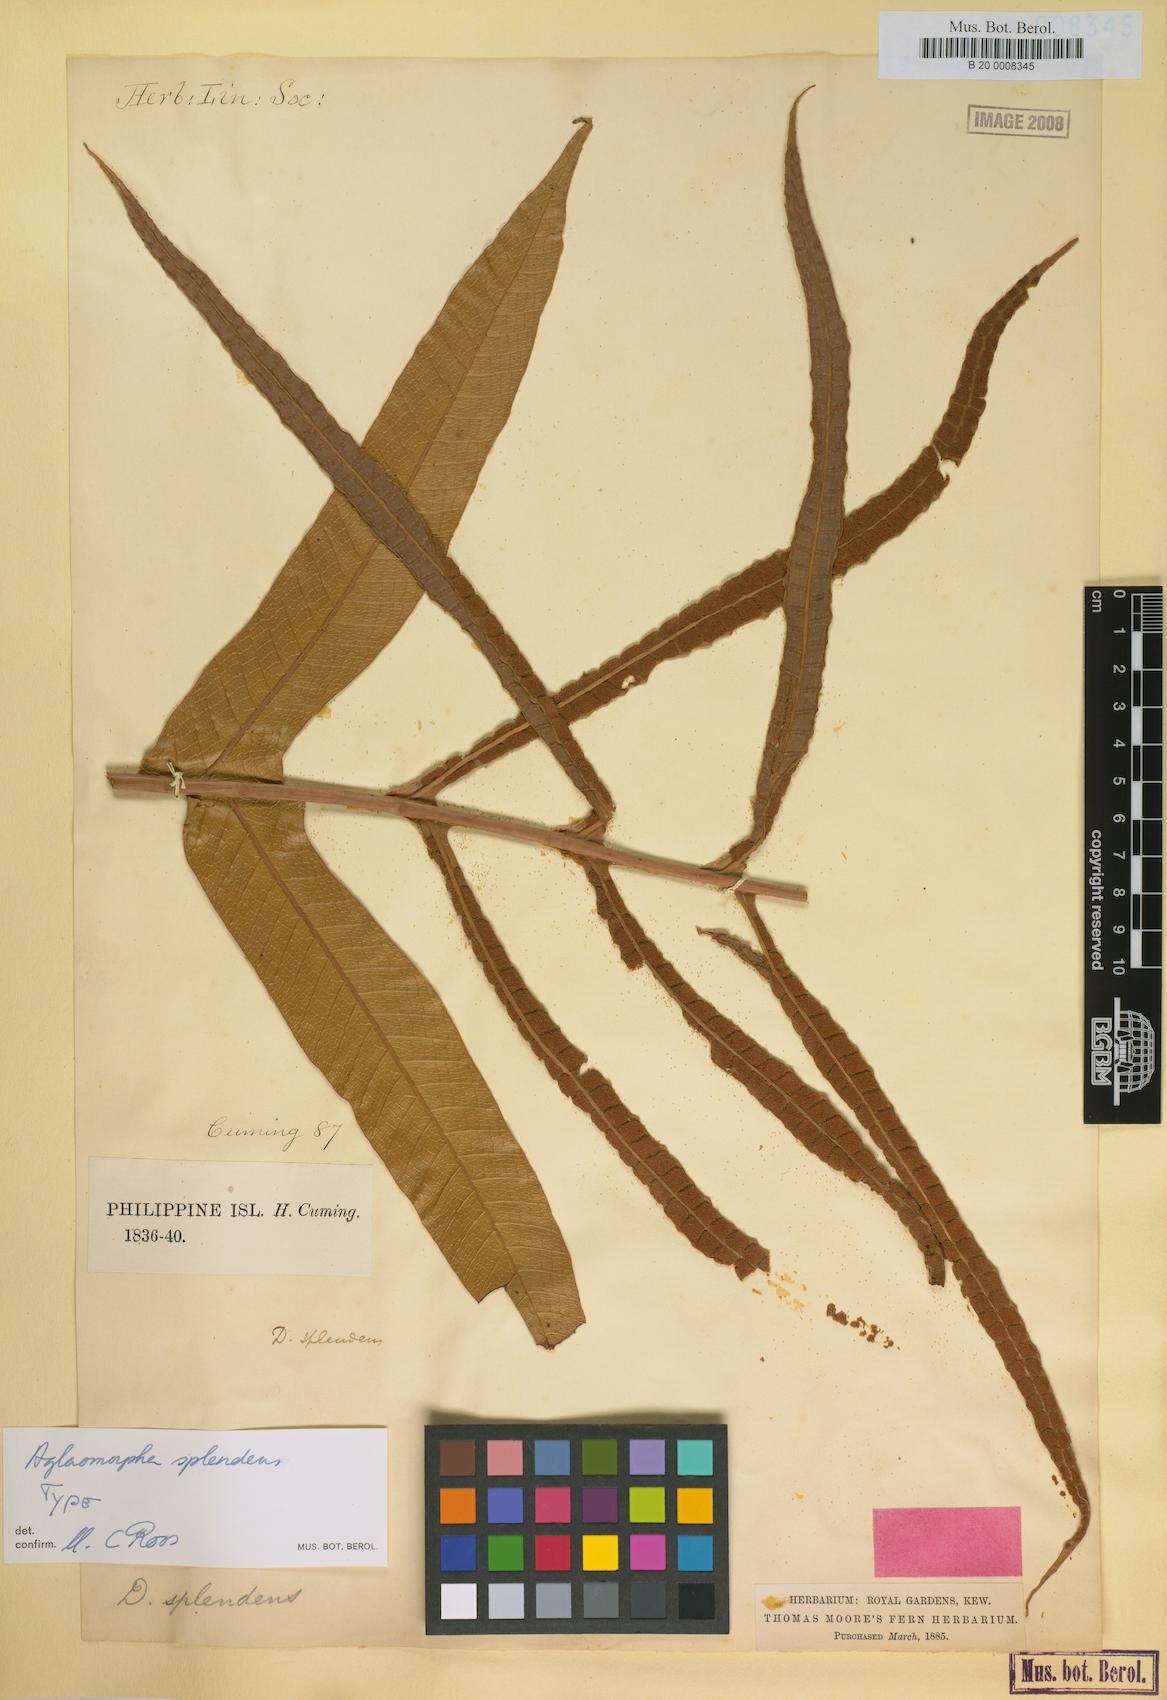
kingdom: Plantae
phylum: Tracheophyta
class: Polypodiopsida
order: Polypodiales
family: Polypodiaceae
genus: Drynaria
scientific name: Drynaria splendens
